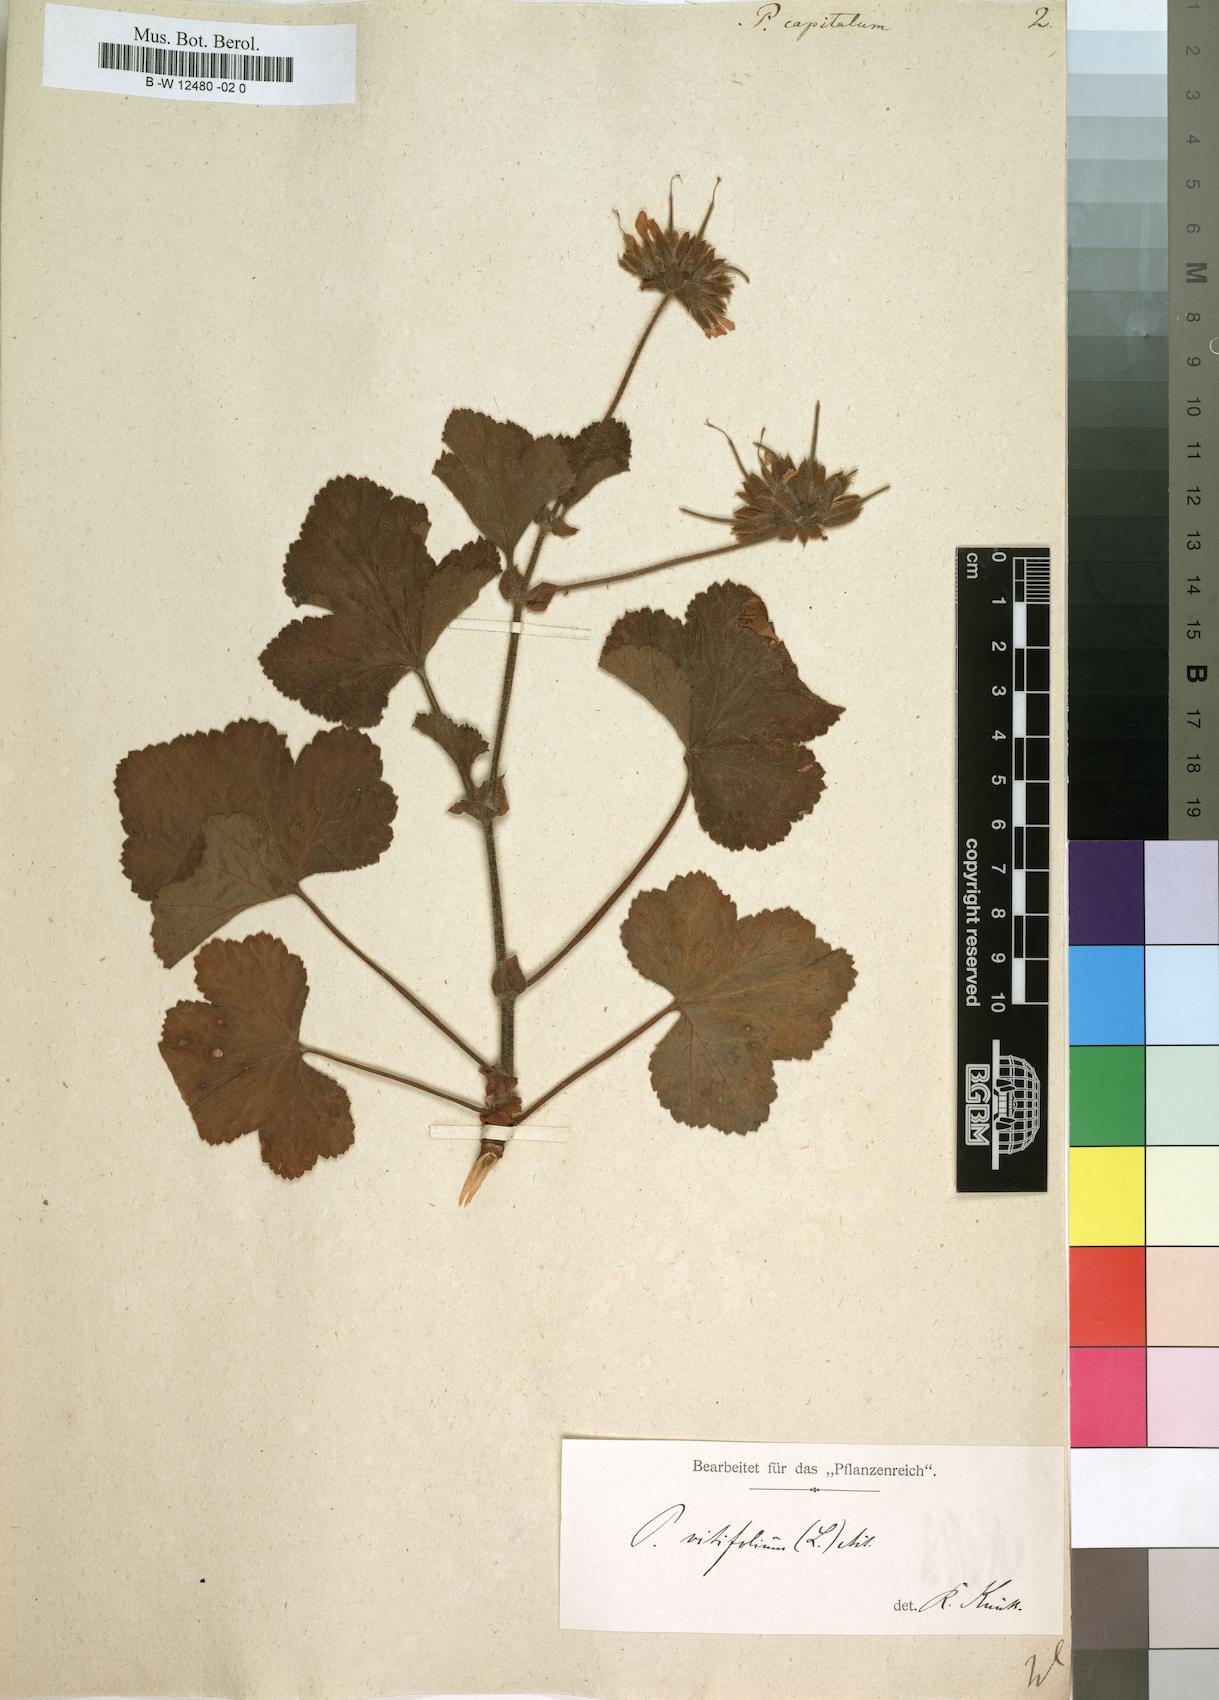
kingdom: Plantae
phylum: Tracheophyta
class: Magnoliopsida
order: Geraniales
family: Geraniaceae
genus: Pelargonium
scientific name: Pelargonium capitatum
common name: Rose scented geranium
